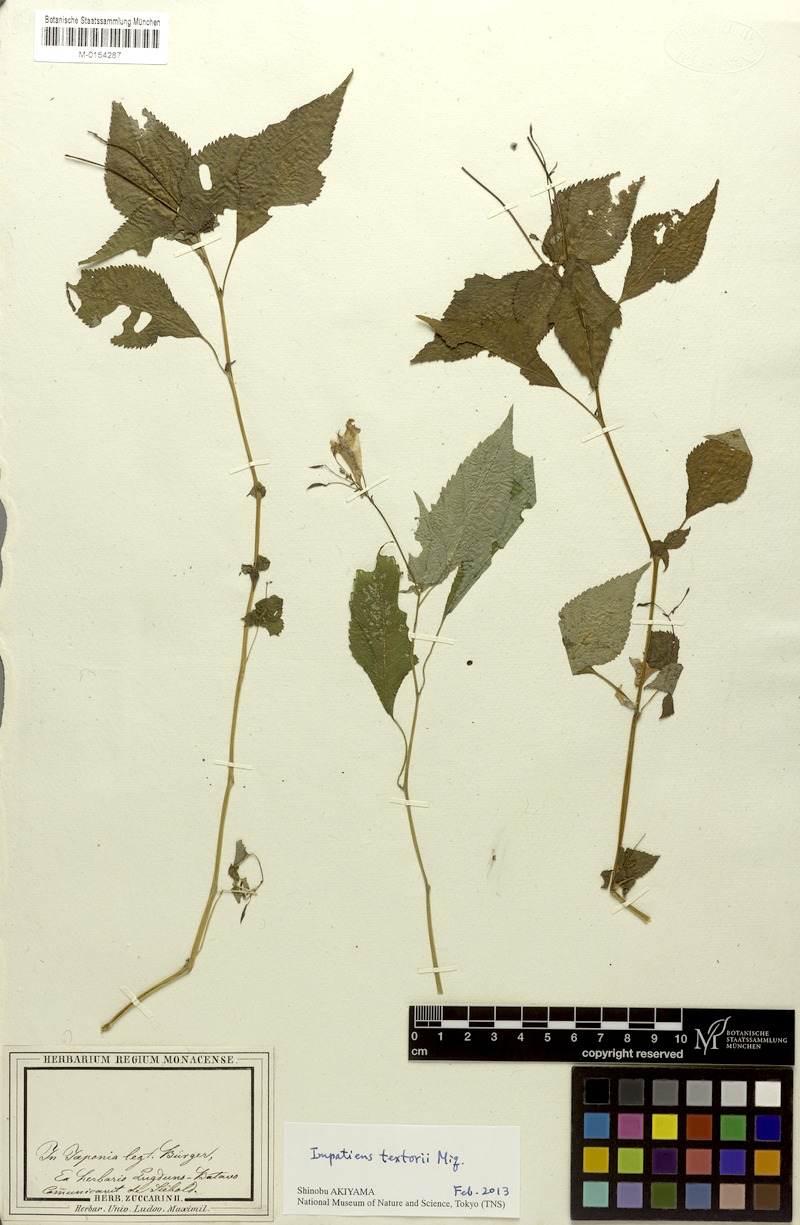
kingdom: Plantae
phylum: Tracheophyta
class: Magnoliopsida
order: Ericales
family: Balsaminaceae
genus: Impatiens
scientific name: Impatiens textorii
